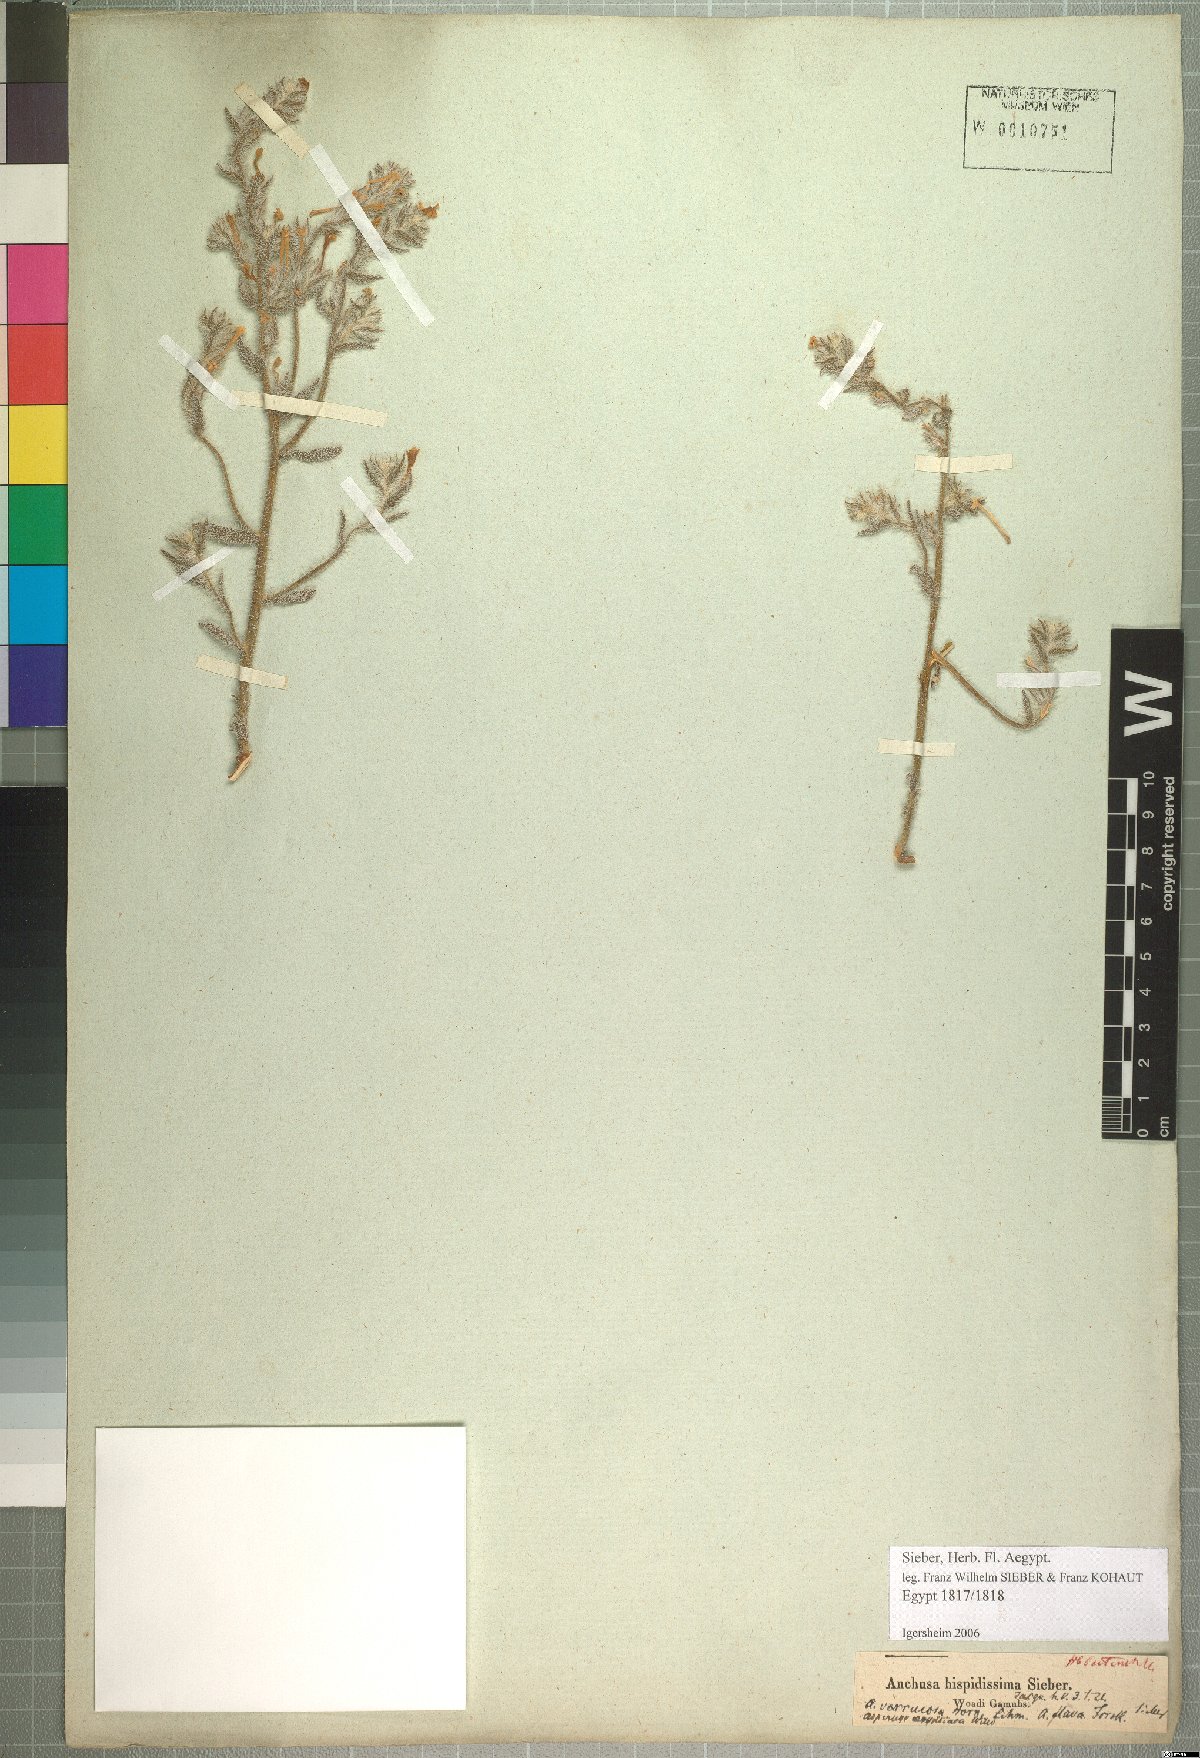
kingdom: Plantae
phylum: Tracheophyta
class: Magnoliopsida
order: Boraginales
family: Boraginaceae
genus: Arnebia
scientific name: Arnebia hispidissima
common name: Arabian-primrose
